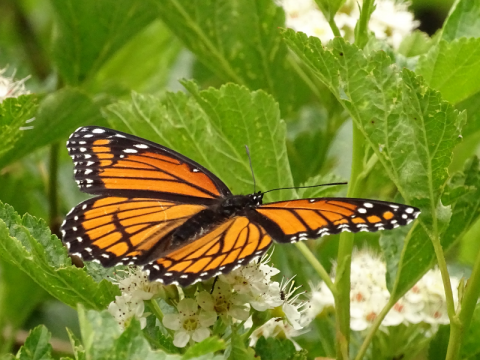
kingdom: Animalia
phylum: Arthropoda
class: Insecta
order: Lepidoptera
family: Nymphalidae
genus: Limenitis
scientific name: Limenitis archippus
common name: Viceroy
